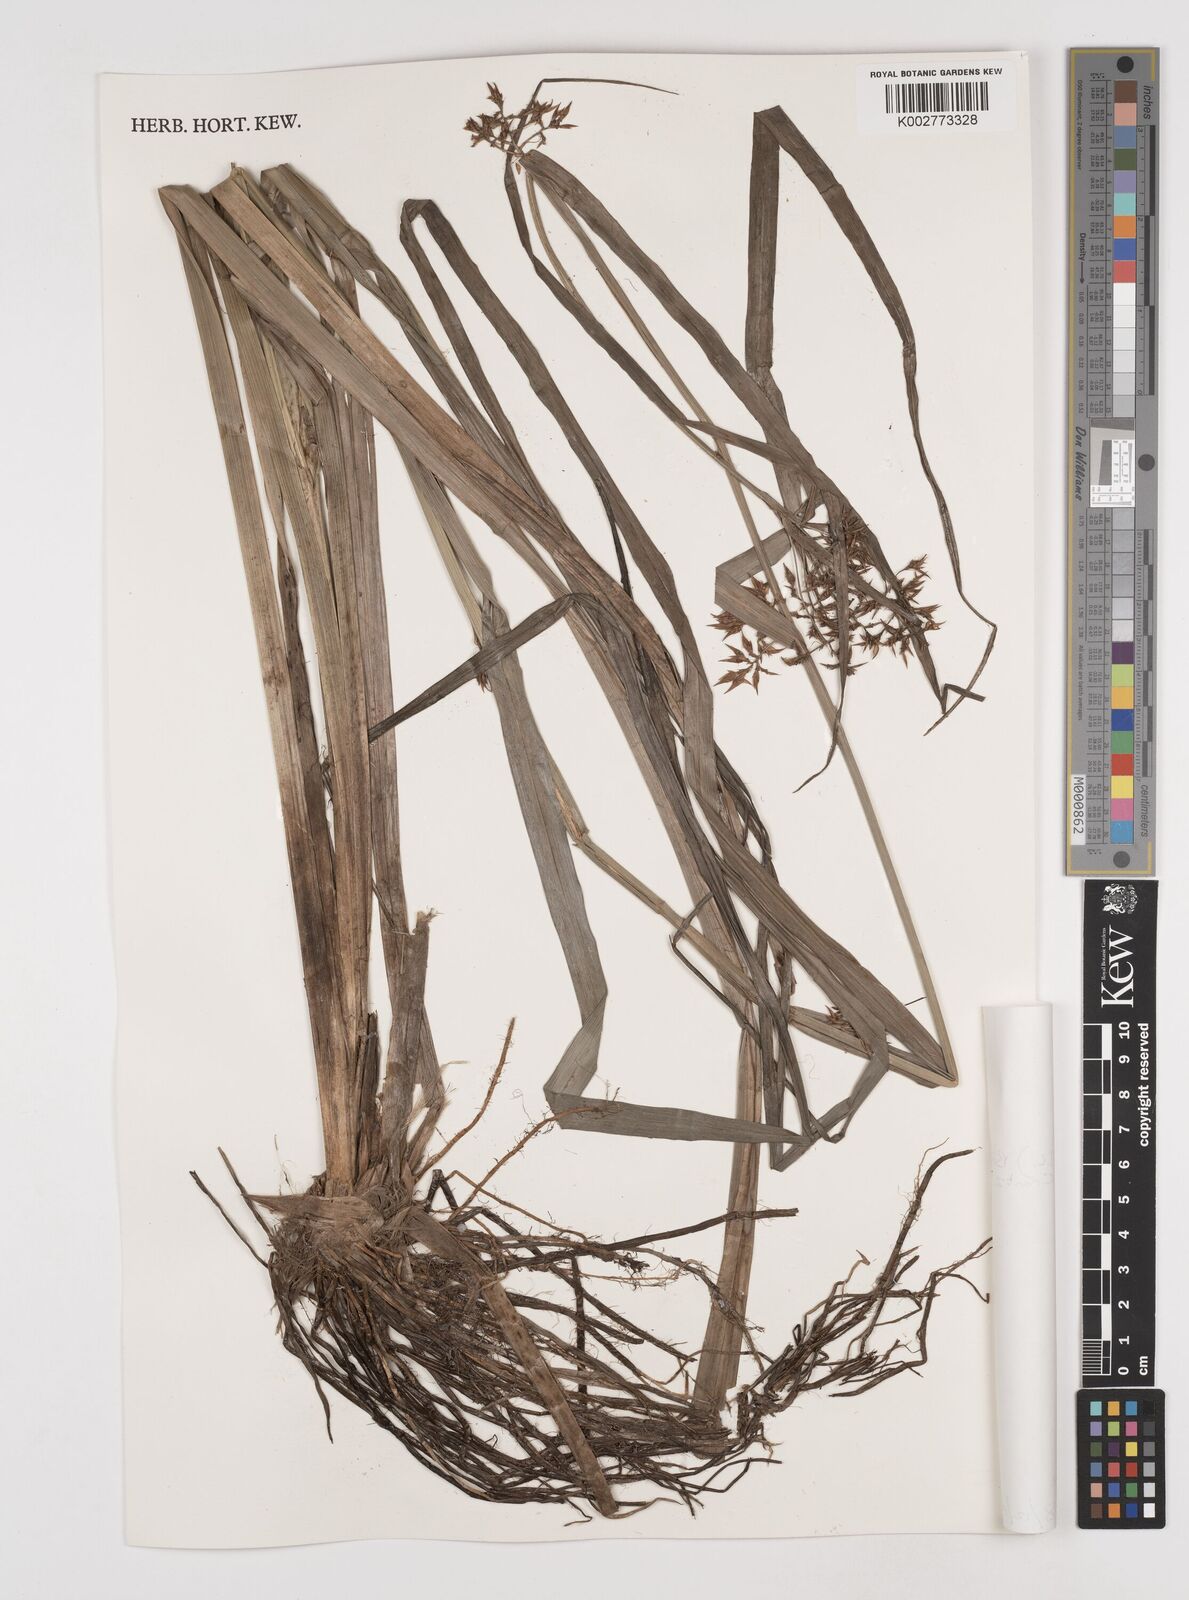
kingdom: Plantae
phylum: Tracheophyta
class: Liliopsida
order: Poales
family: Cyperaceae
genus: Rhynchospora
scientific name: Rhynchospora corymbosa
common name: Golden beak sedge
